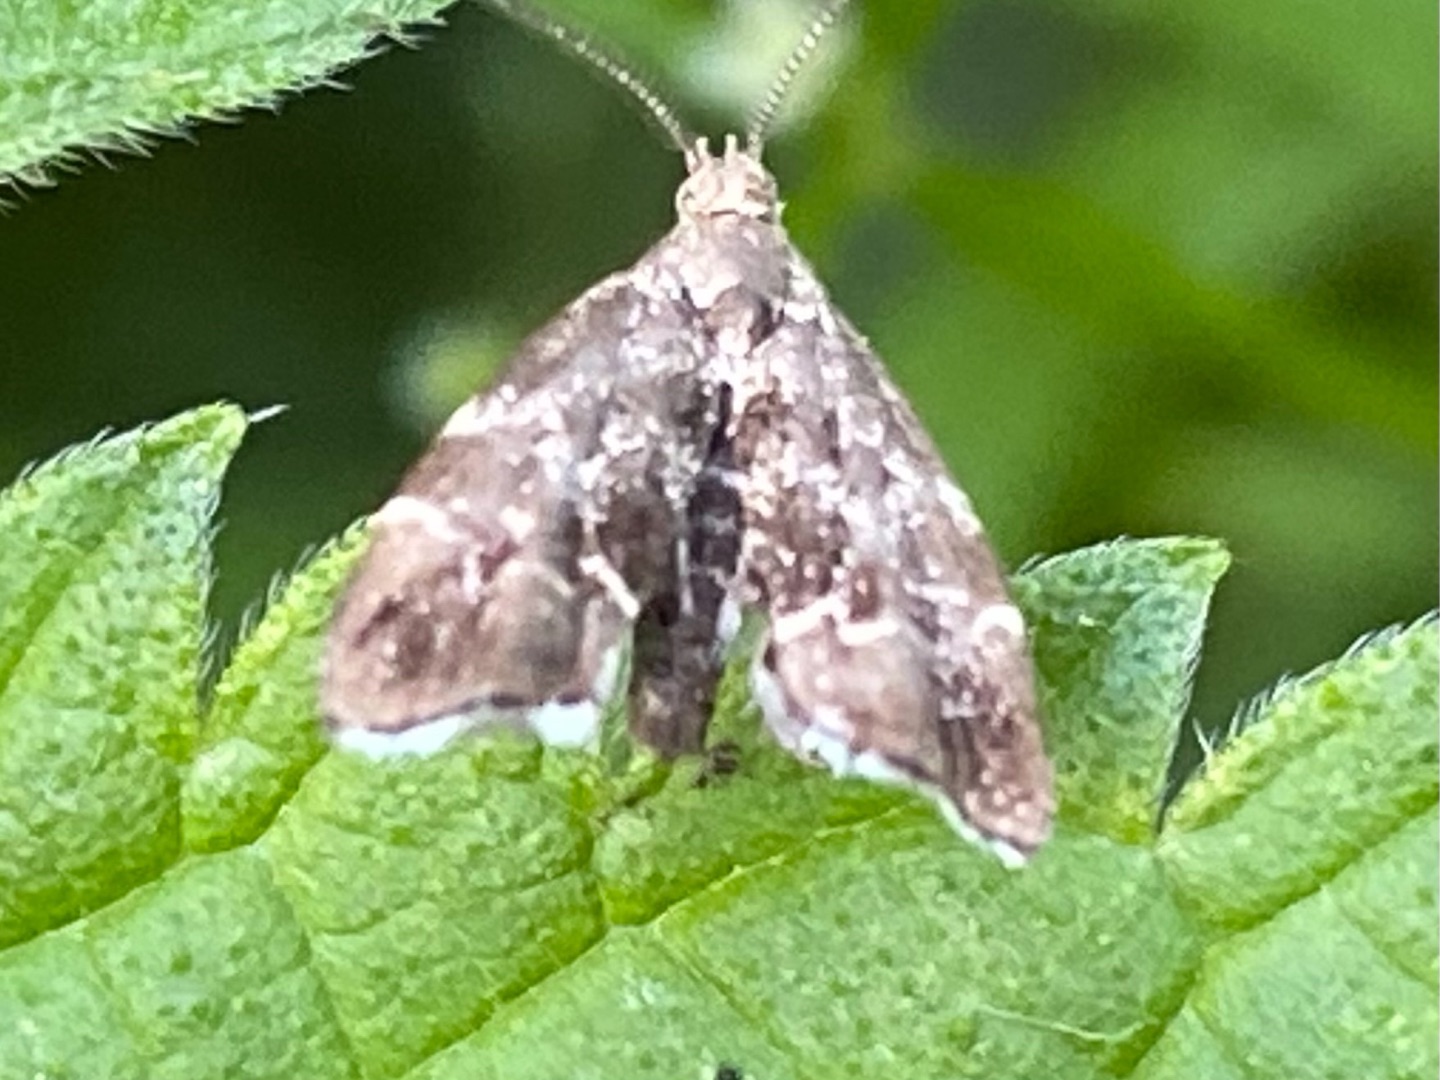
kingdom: Animalia
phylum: Arthropoda
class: Insecta
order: Lepidoptera
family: Choreutidae
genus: Anthophila
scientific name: Anthophila fabriciana
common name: Bredvinget nældevikler
